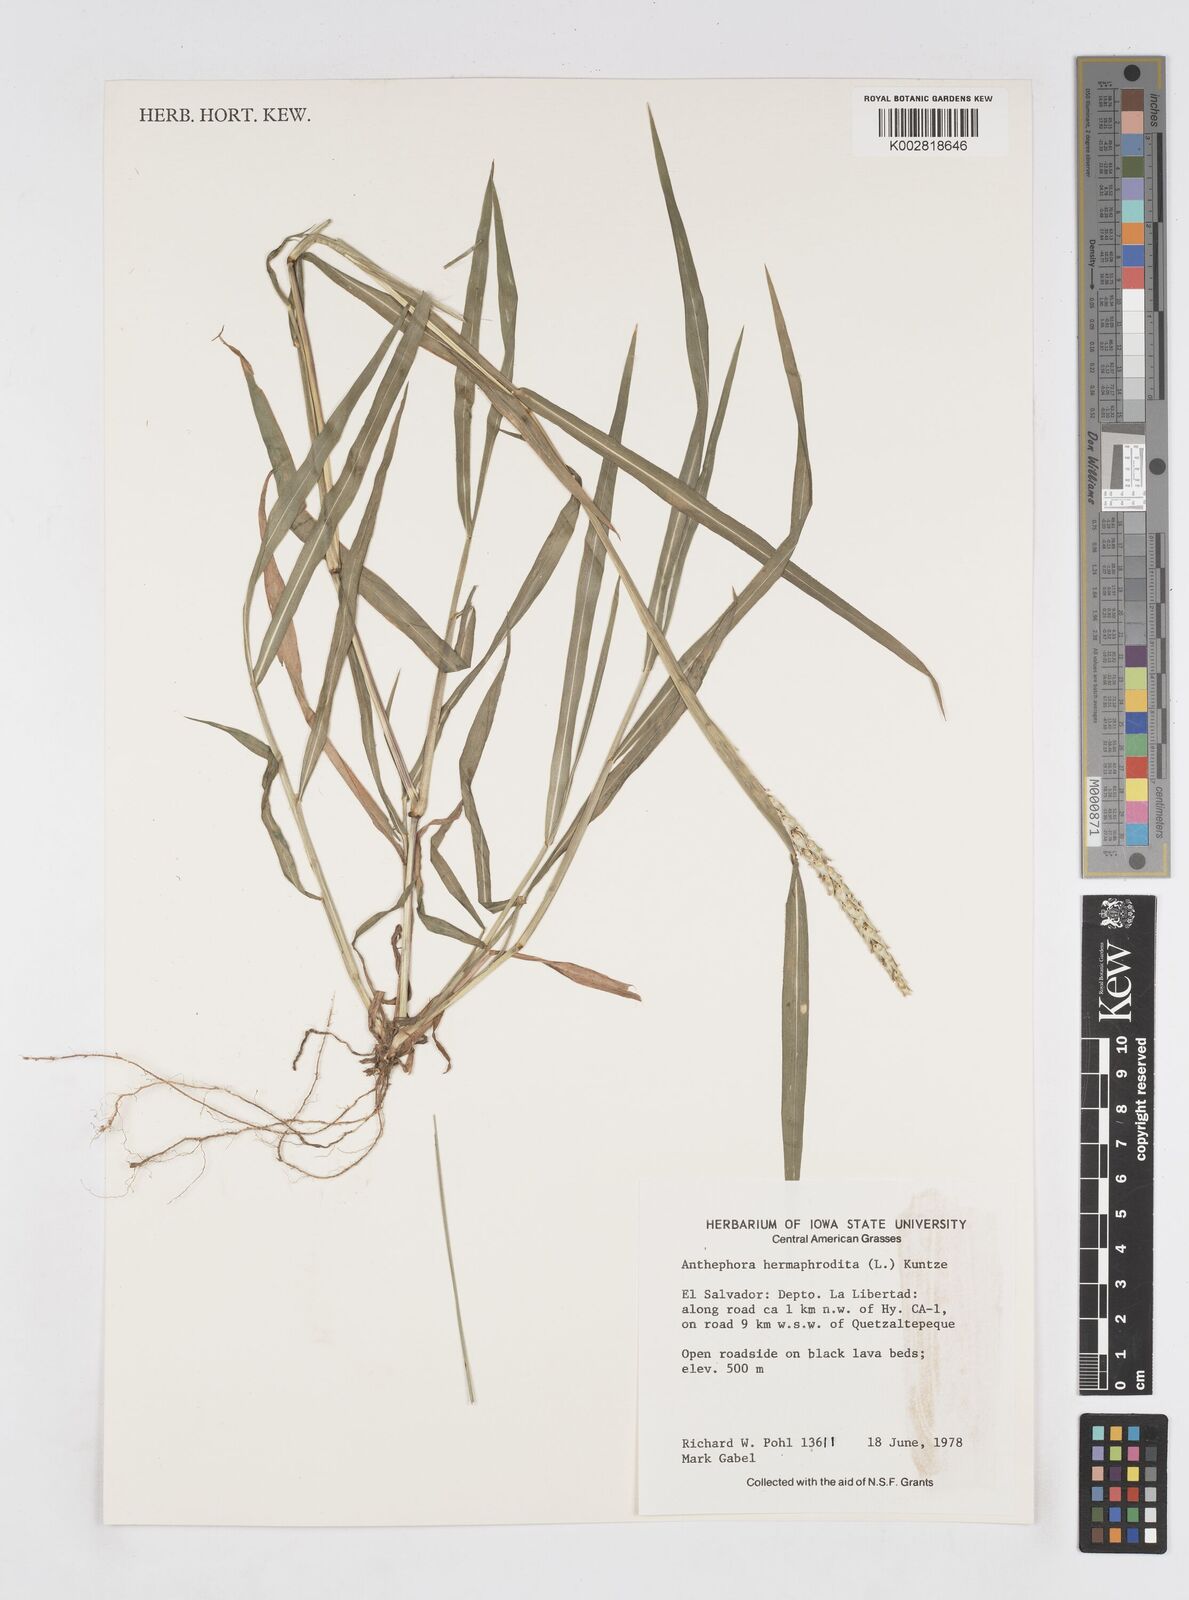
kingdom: Plantae
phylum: Tracheophyta
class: Liliopsida
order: Poales
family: Poaceae
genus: Anthephora
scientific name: Anthephora hermaphrodita
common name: Oldfield grass
